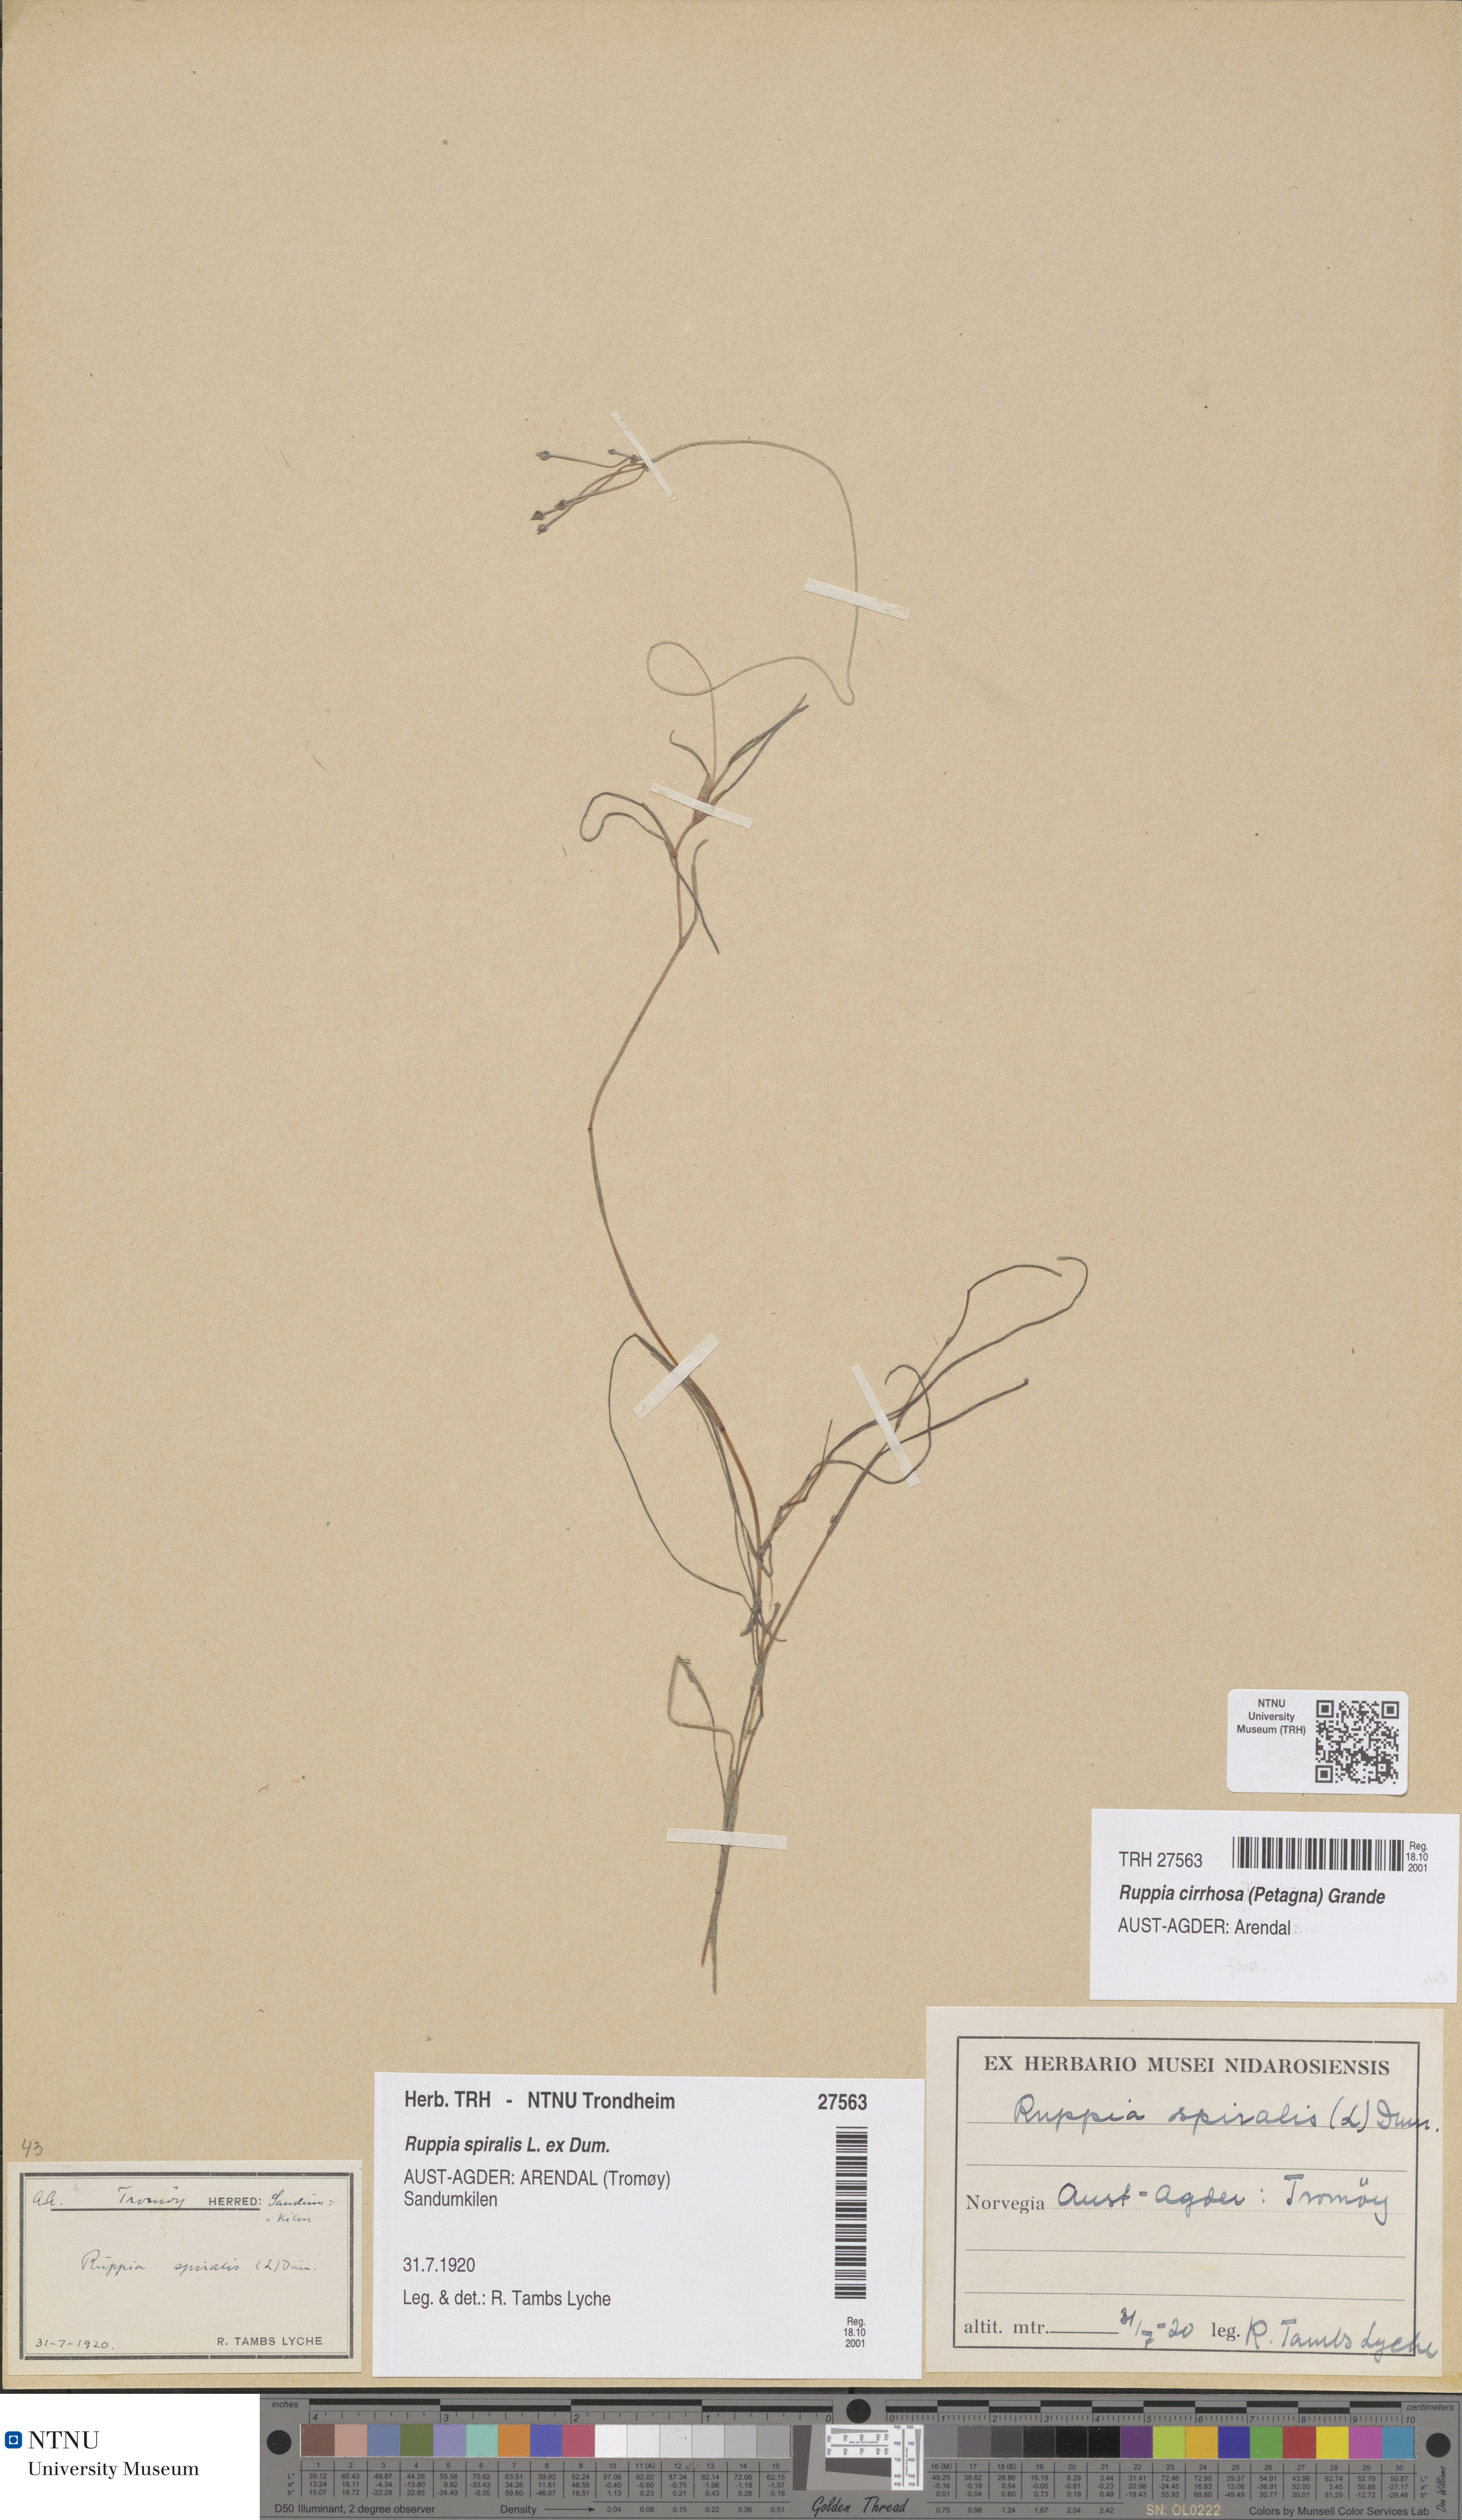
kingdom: Plantae
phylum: Tracheophyta
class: Liliopsida
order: Alismatales
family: Ruppiaceae
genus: Ruppia
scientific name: Ruppia cirrhosa
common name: Spiral tasselweed
